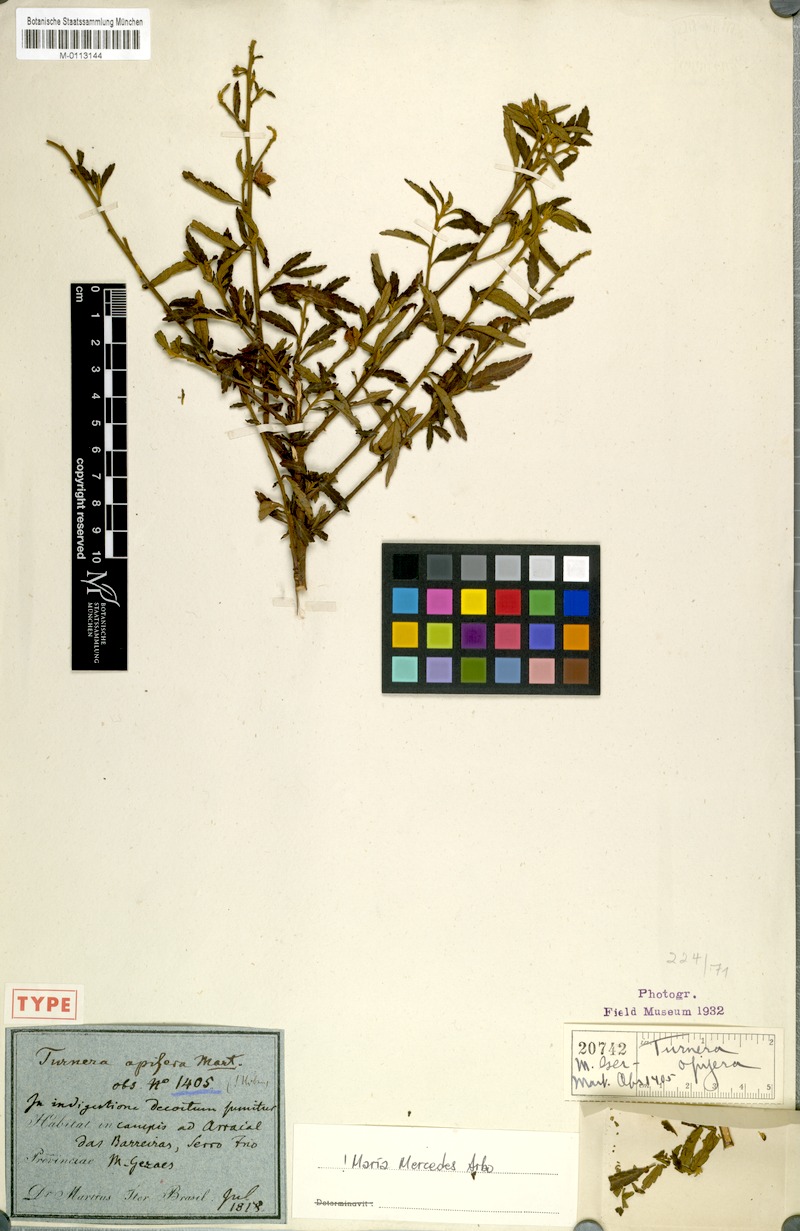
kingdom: Plantae
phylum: Tracheophyta
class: Magnoliopsida
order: Malpighiales
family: Turneraceae
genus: Turnera
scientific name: Turnera opifera
